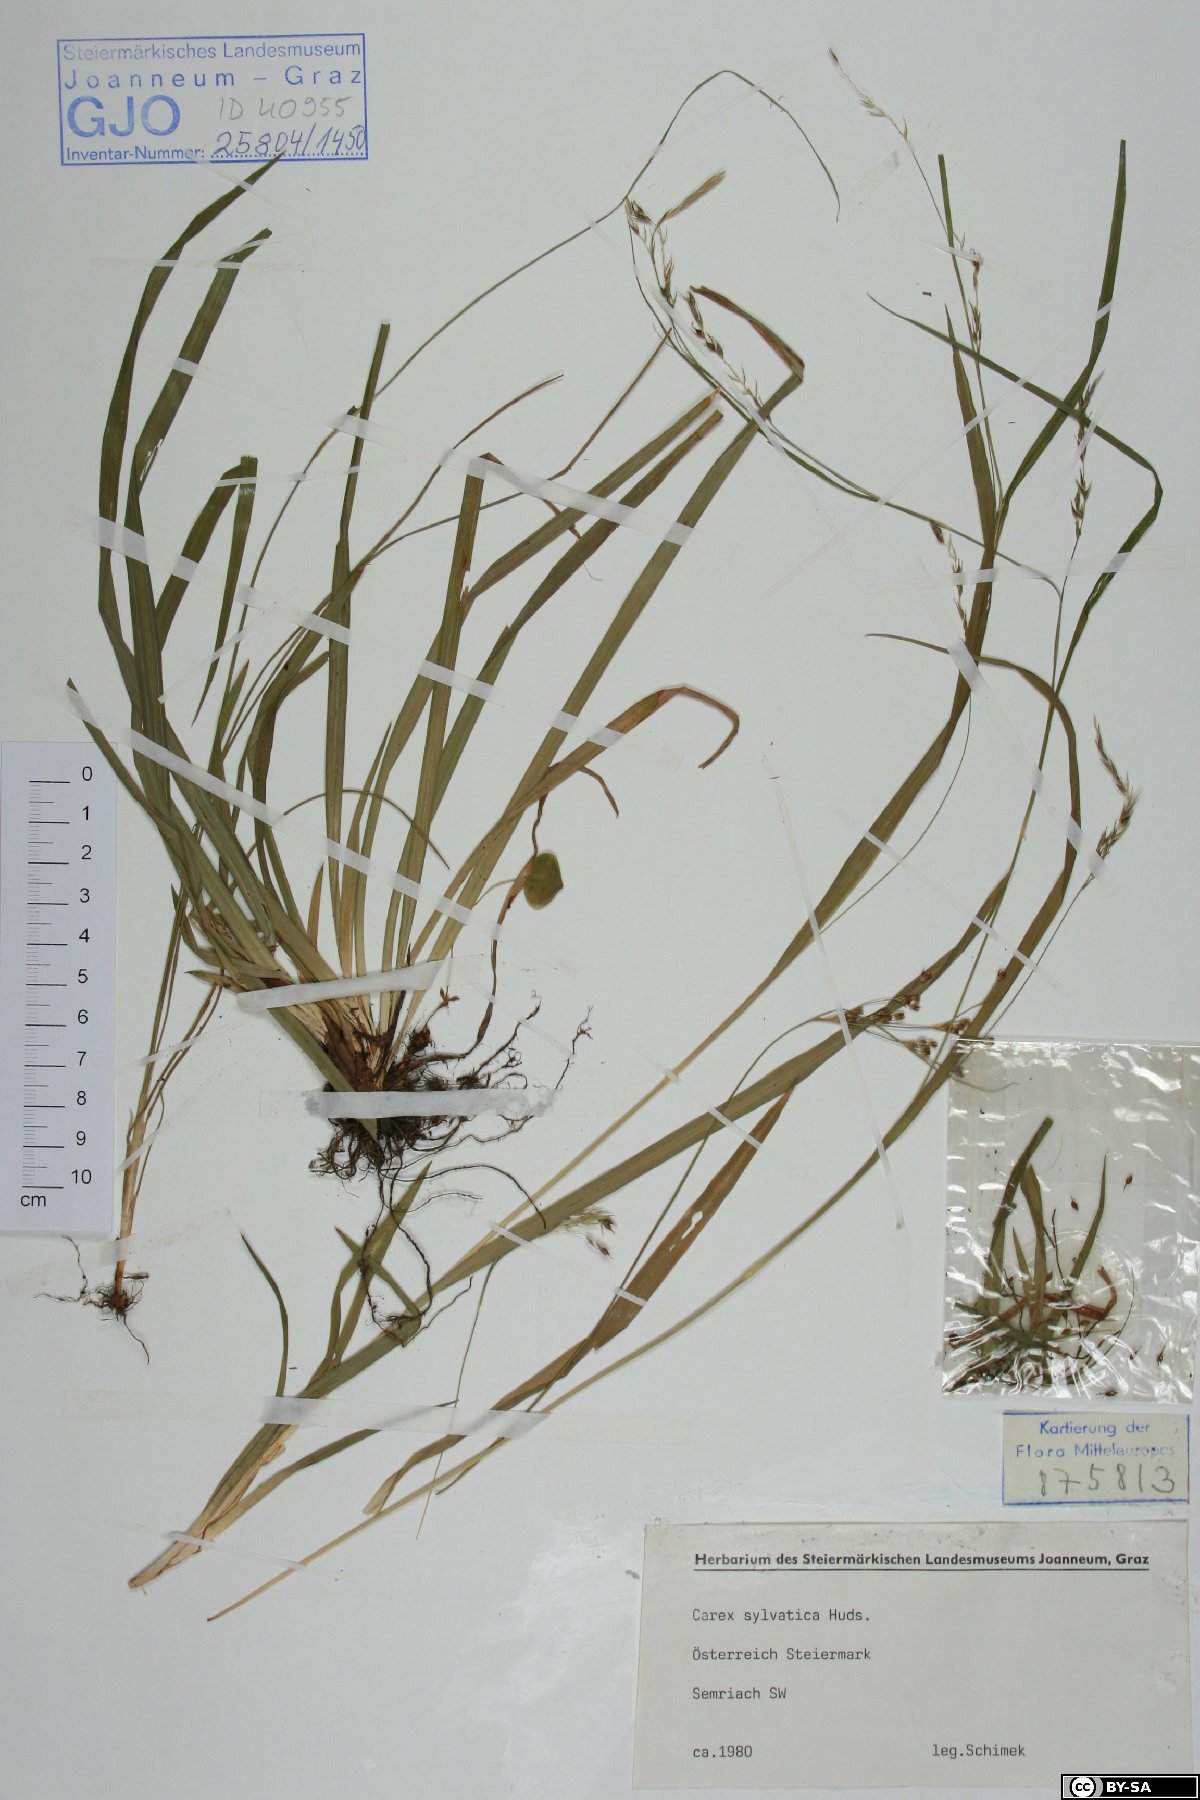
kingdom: Plantae
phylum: Tracheophyta
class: Liliopsida
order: Poales
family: Cyperaceae
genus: Carex
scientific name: Carex sylvatica
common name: Wood-sedge
